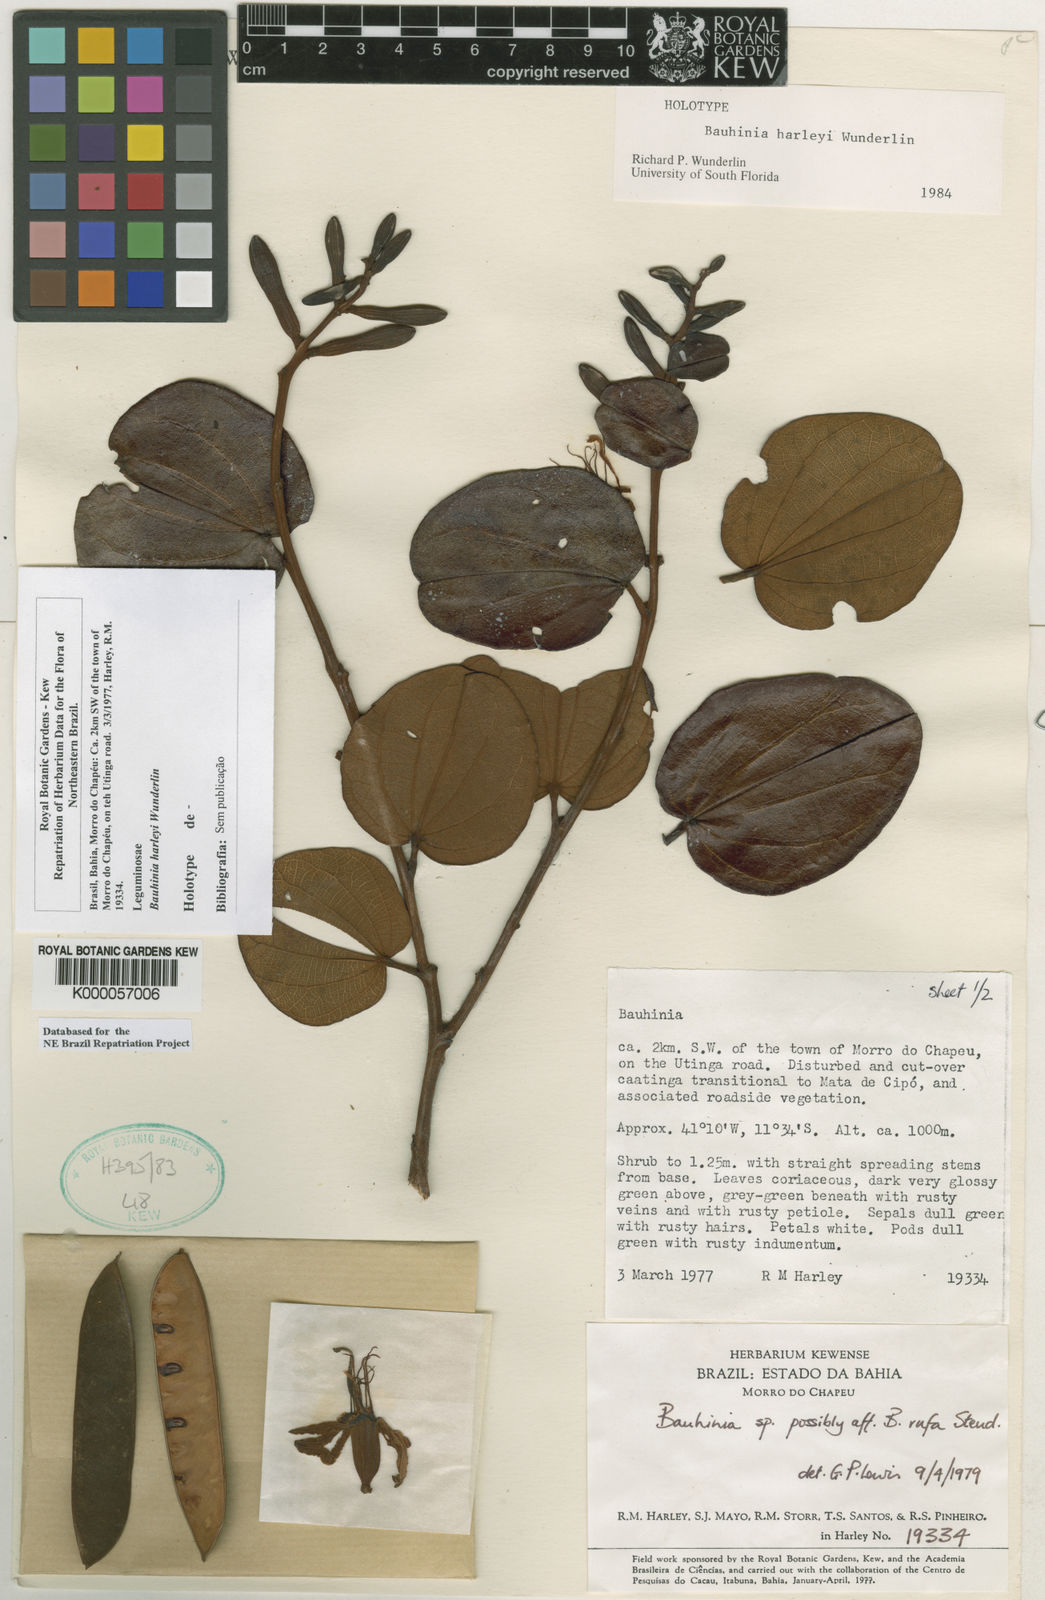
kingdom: Plantae
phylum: Tracheophyta
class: Magnoliopsida
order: Fabales
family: Fabaceae
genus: Bauhinia
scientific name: Bauhinia
